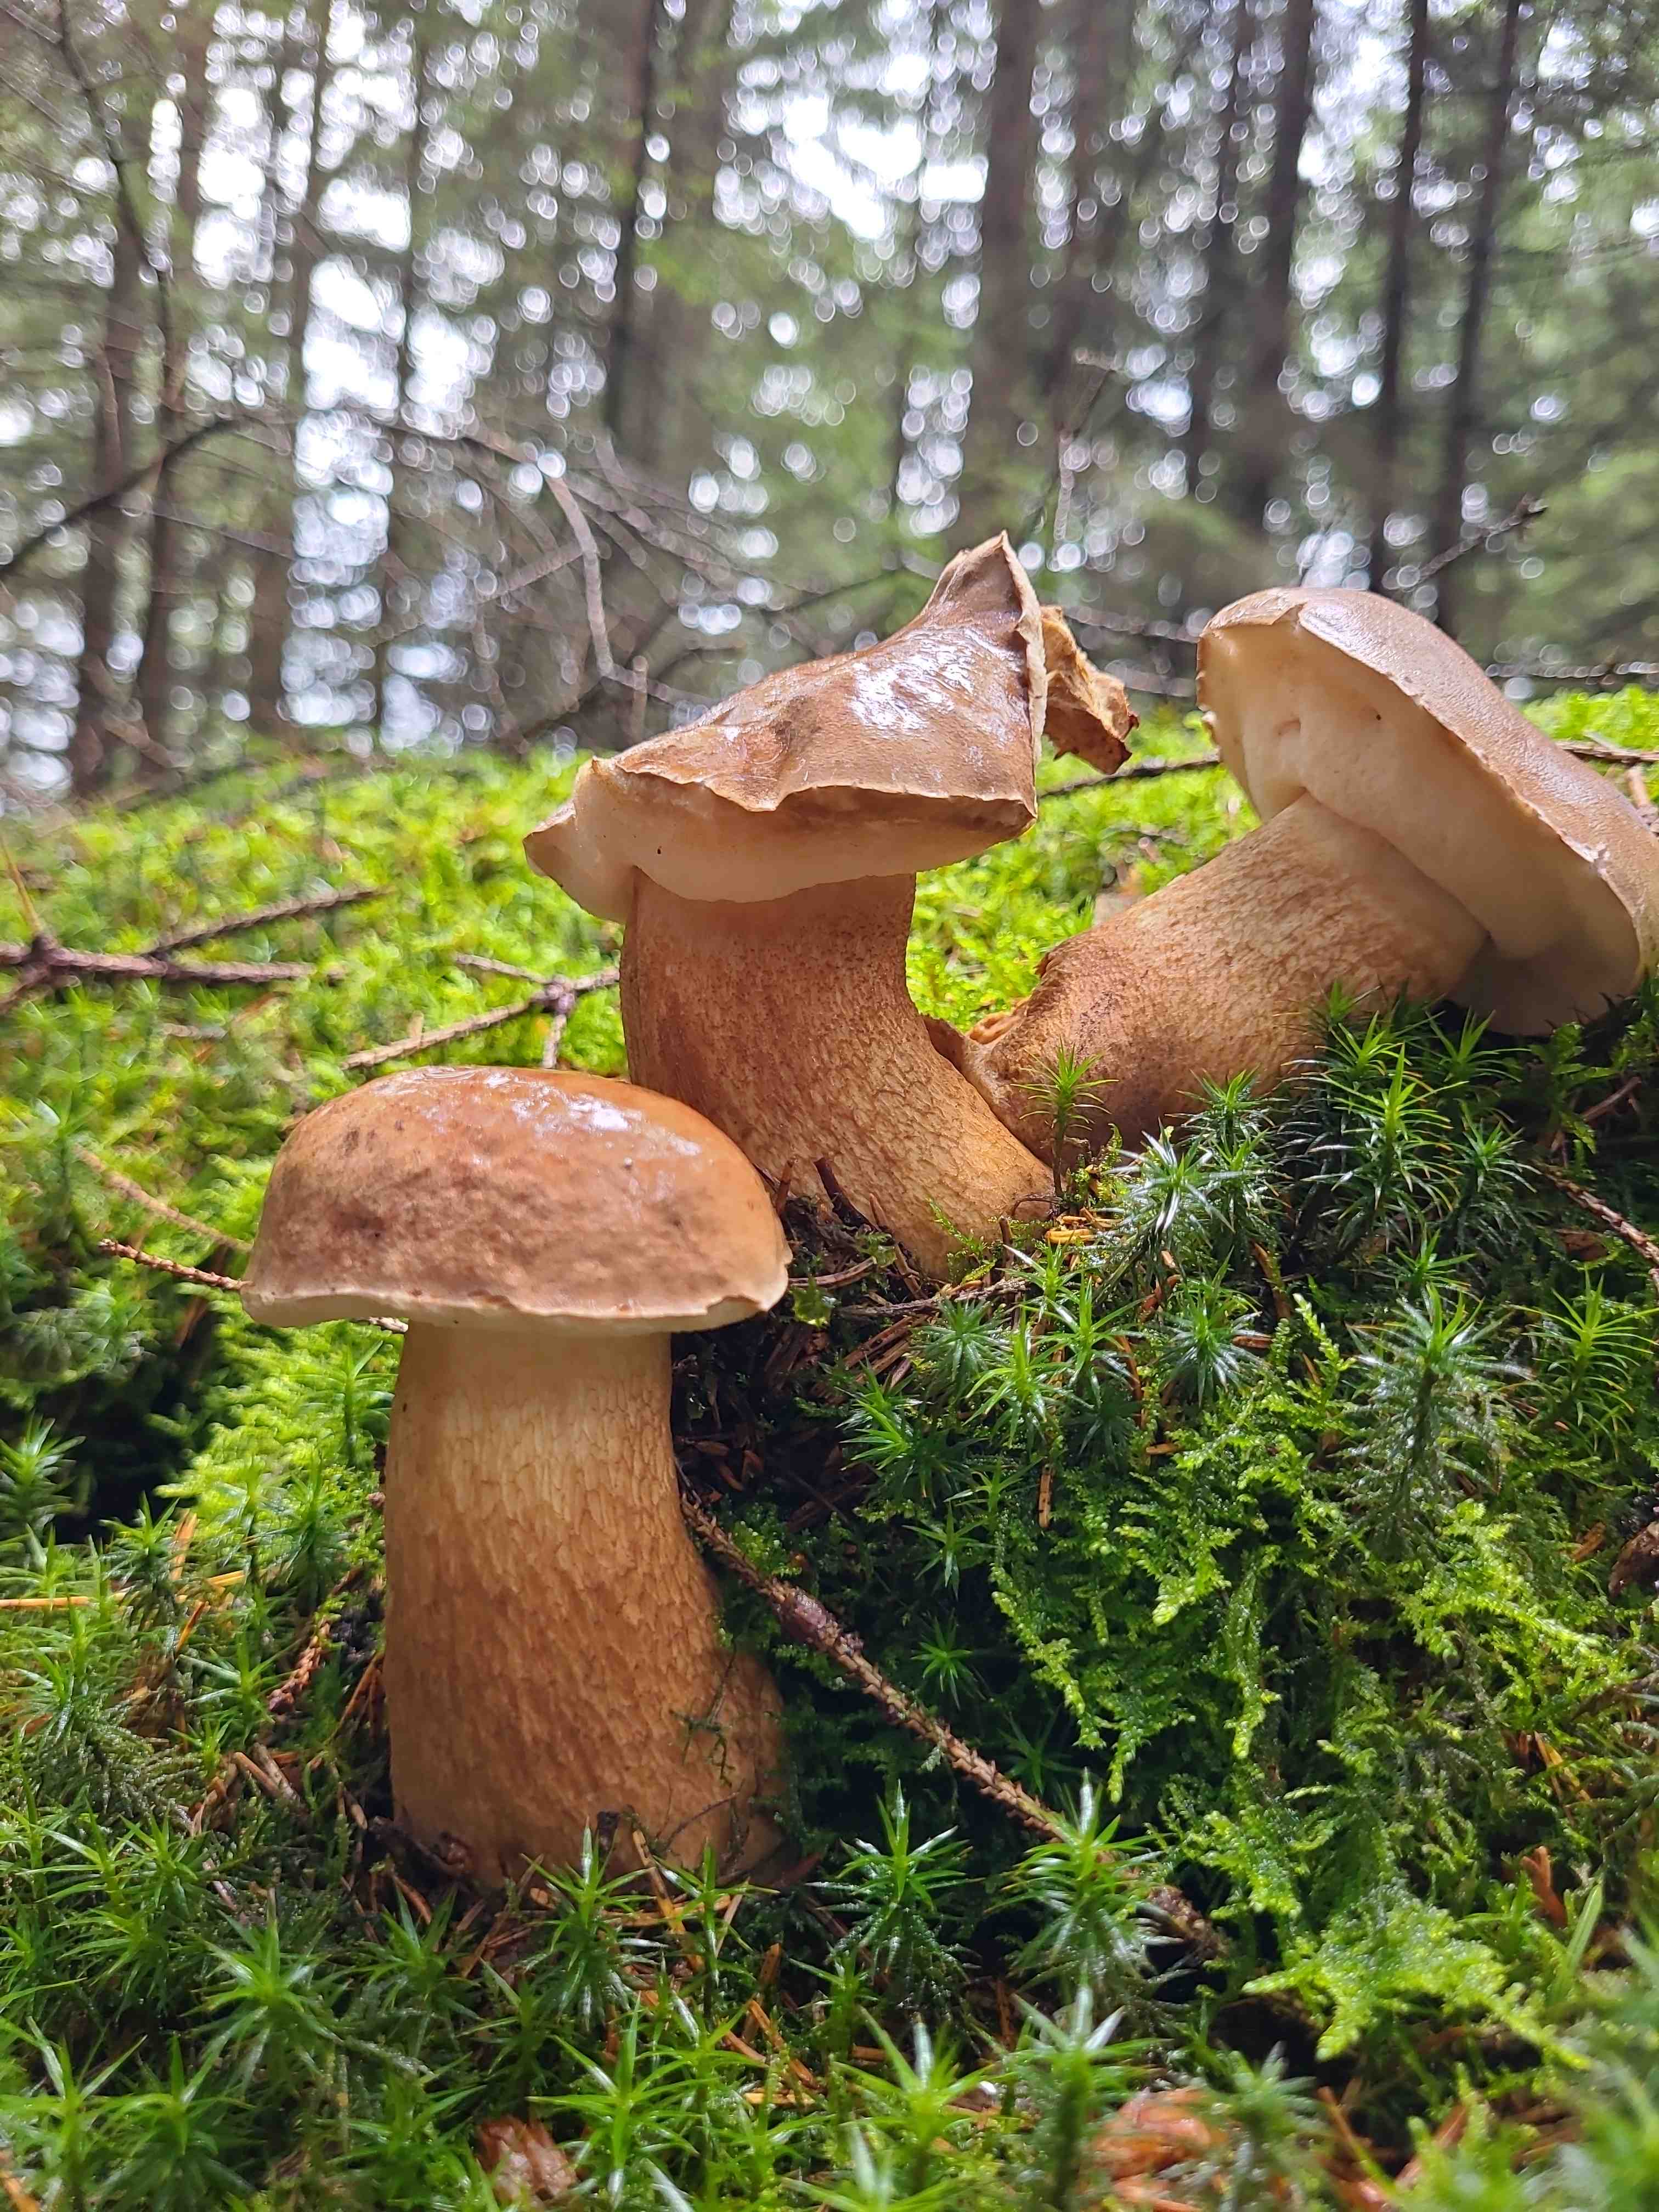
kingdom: Fungi
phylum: Basidiomycota
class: Agaricomycetes
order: Boletales
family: Boletaceae
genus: Tylopilus
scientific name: Tylopilus felleus
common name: galderørhat
